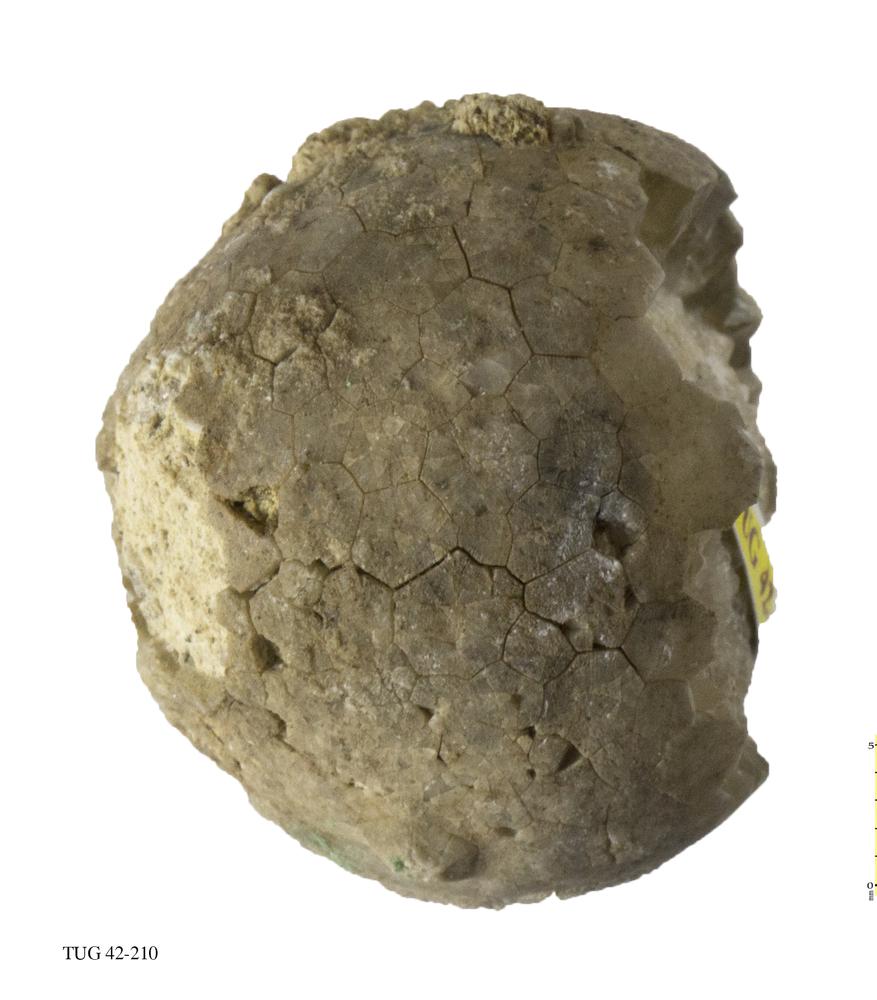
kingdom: Animalia
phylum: Echinodermata
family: Echinosphaeritidae
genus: Echinosphaerites
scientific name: Echinosphaerites Echinus aurantium
